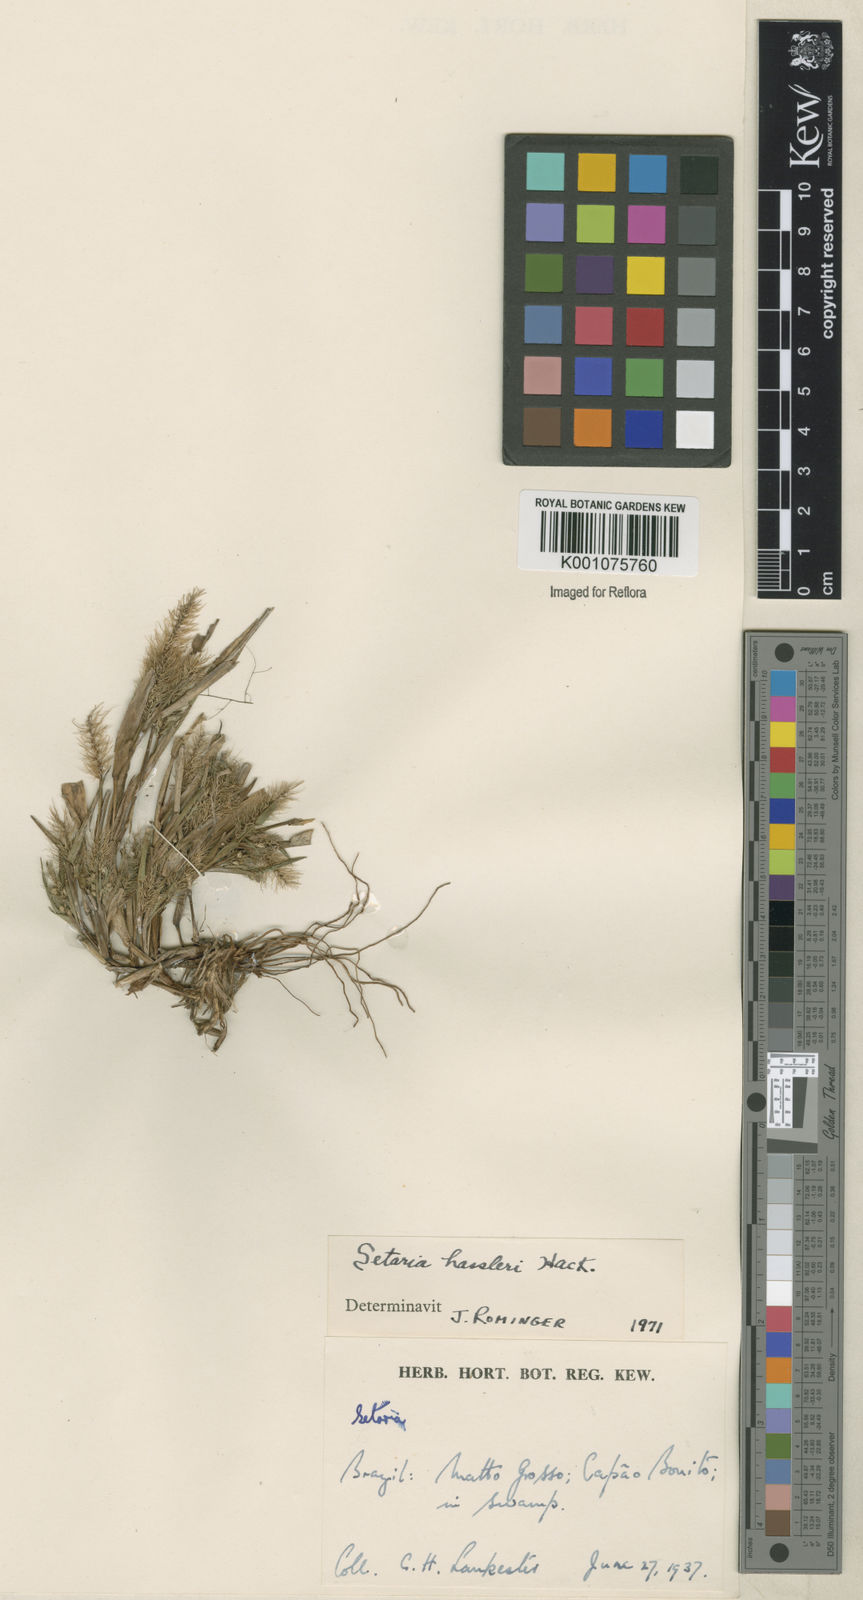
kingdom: Plantae
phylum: Tracheophyta
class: Liliopsida
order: Poales
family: Poaceae
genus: Setaria
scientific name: Setaria hassleri
